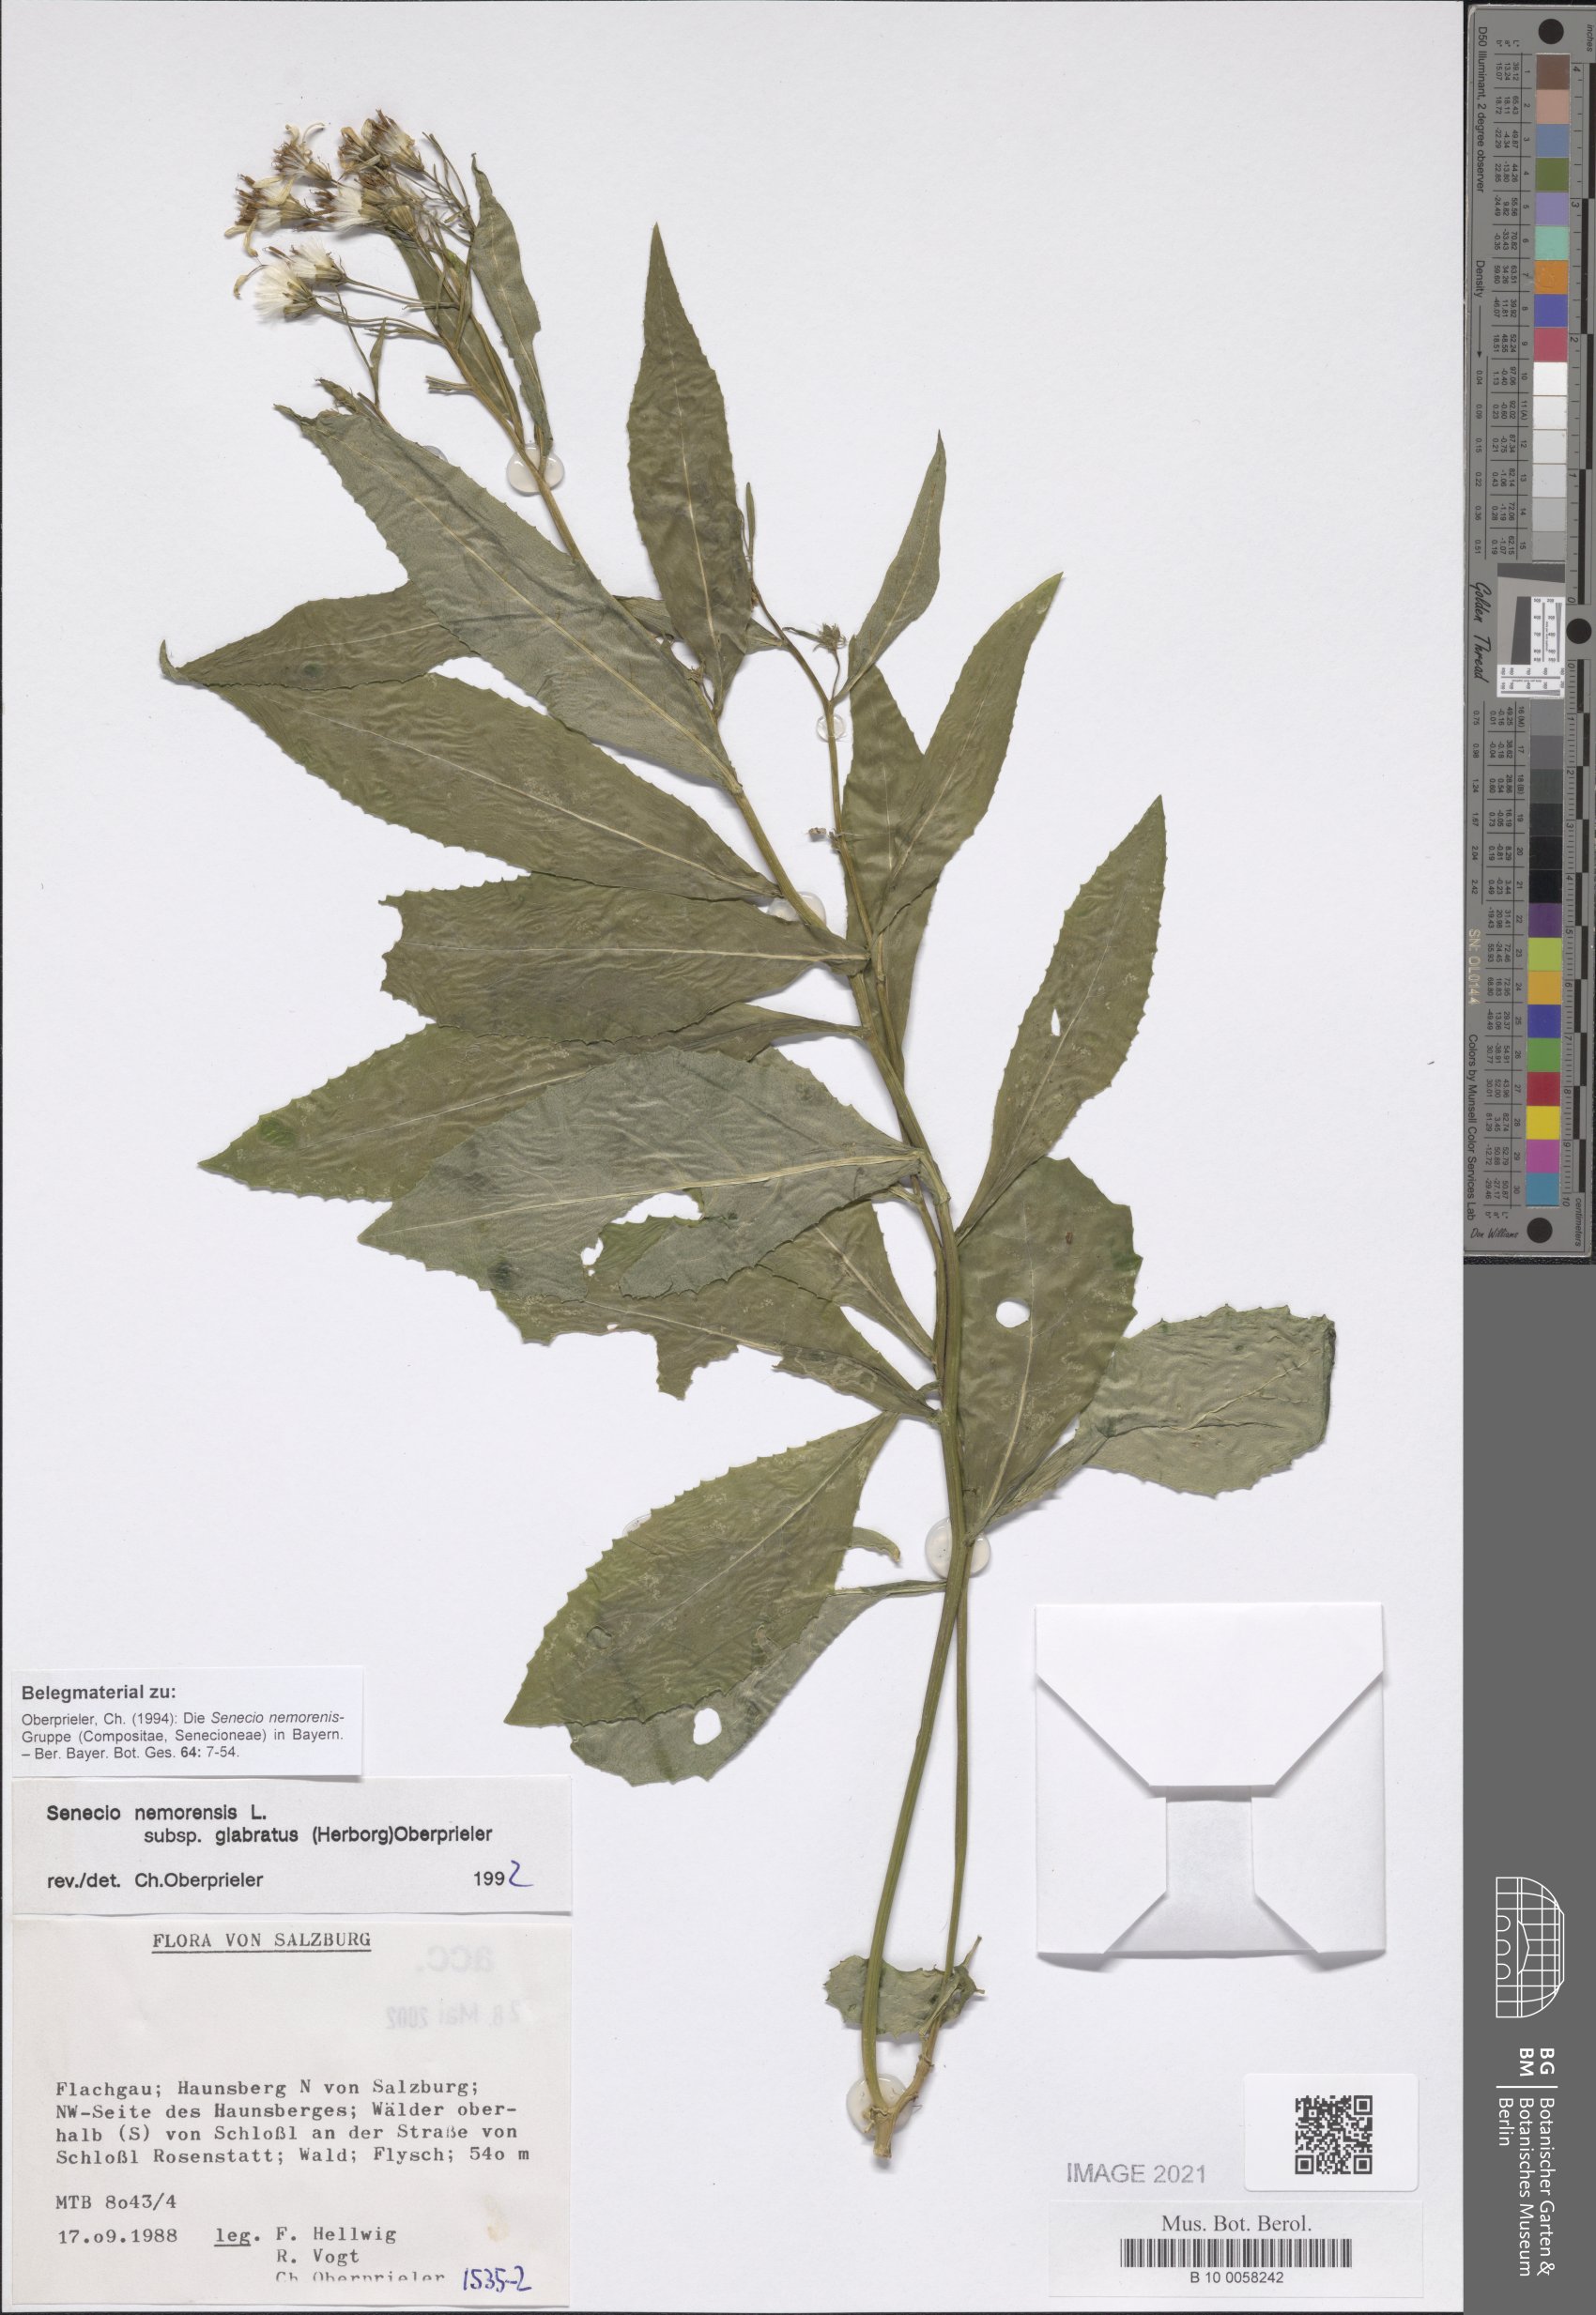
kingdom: Plantae
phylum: Tracheophyta
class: Magnoliopsida
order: Asterales
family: Asteraceae
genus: Senecio
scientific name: Senecio germanicus
